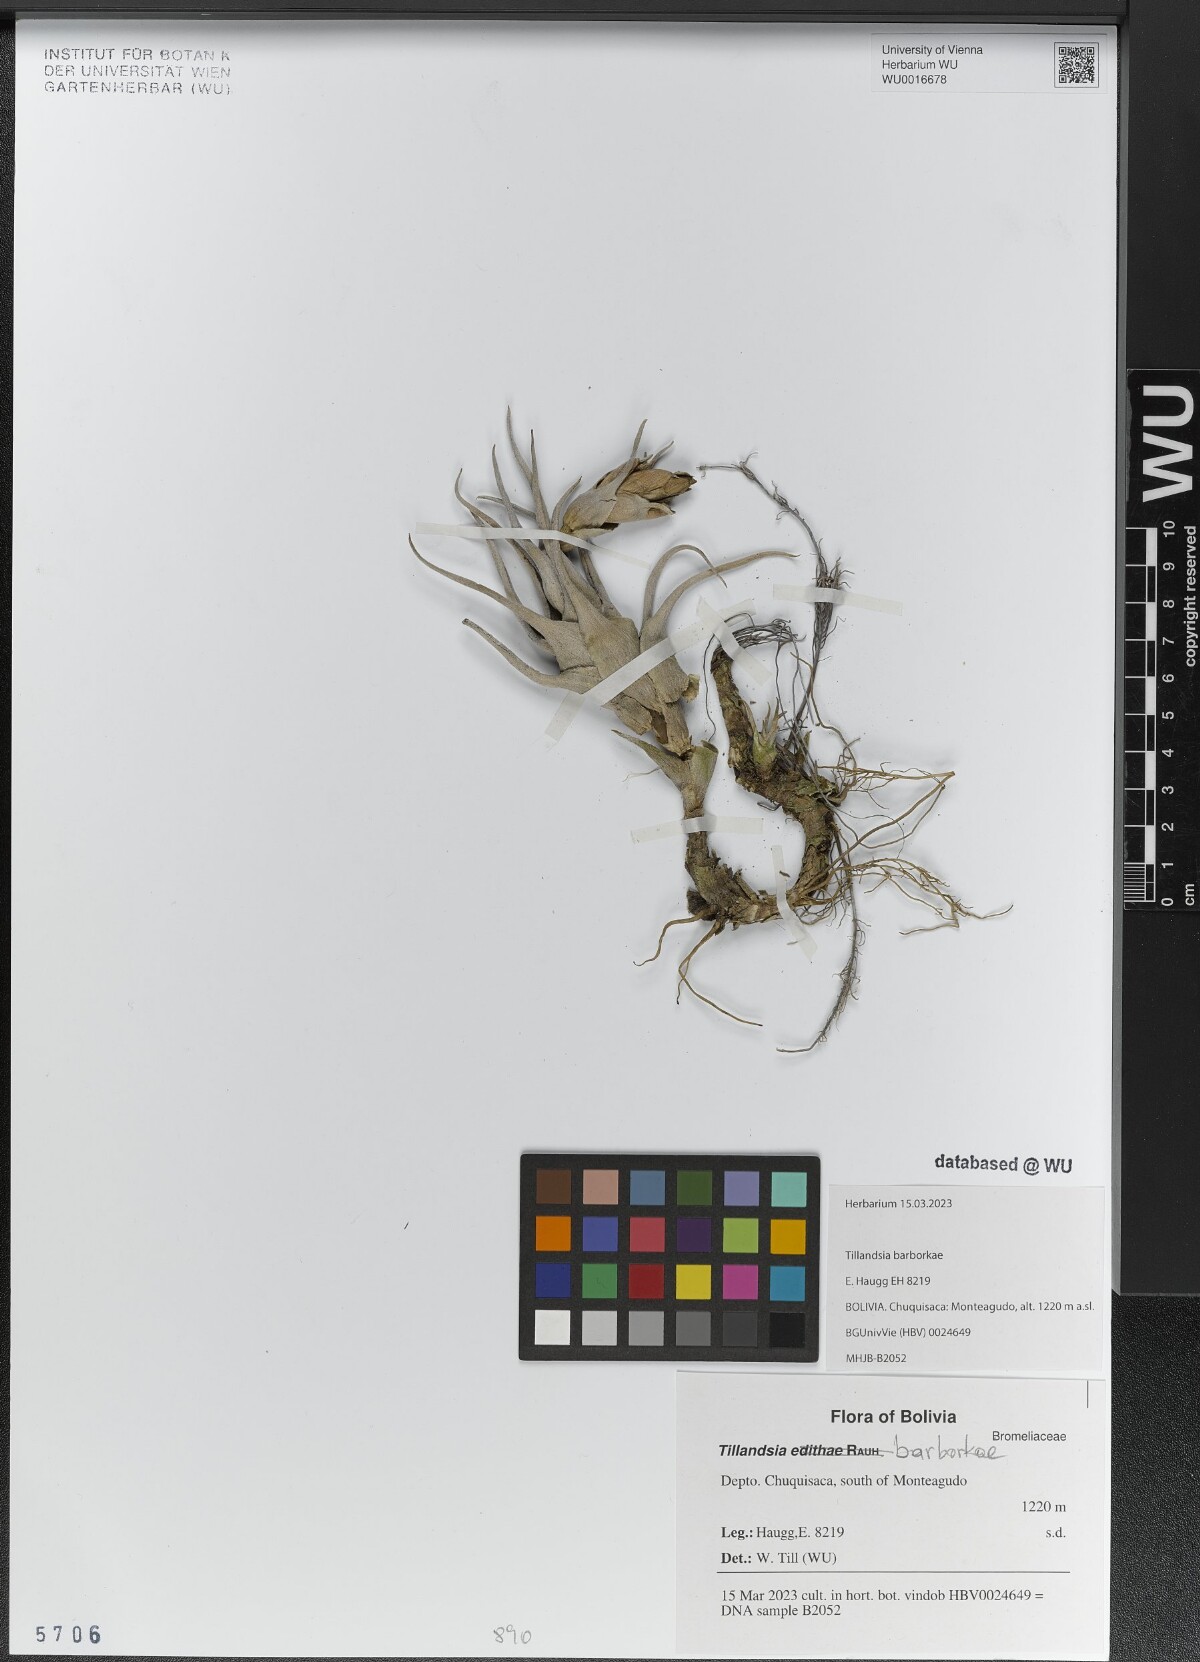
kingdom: Plantae
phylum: Tracheophyta
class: Liliopsida
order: Poales
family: Bromeliaceae
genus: Tillandsia
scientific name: Tillandsia edithae
